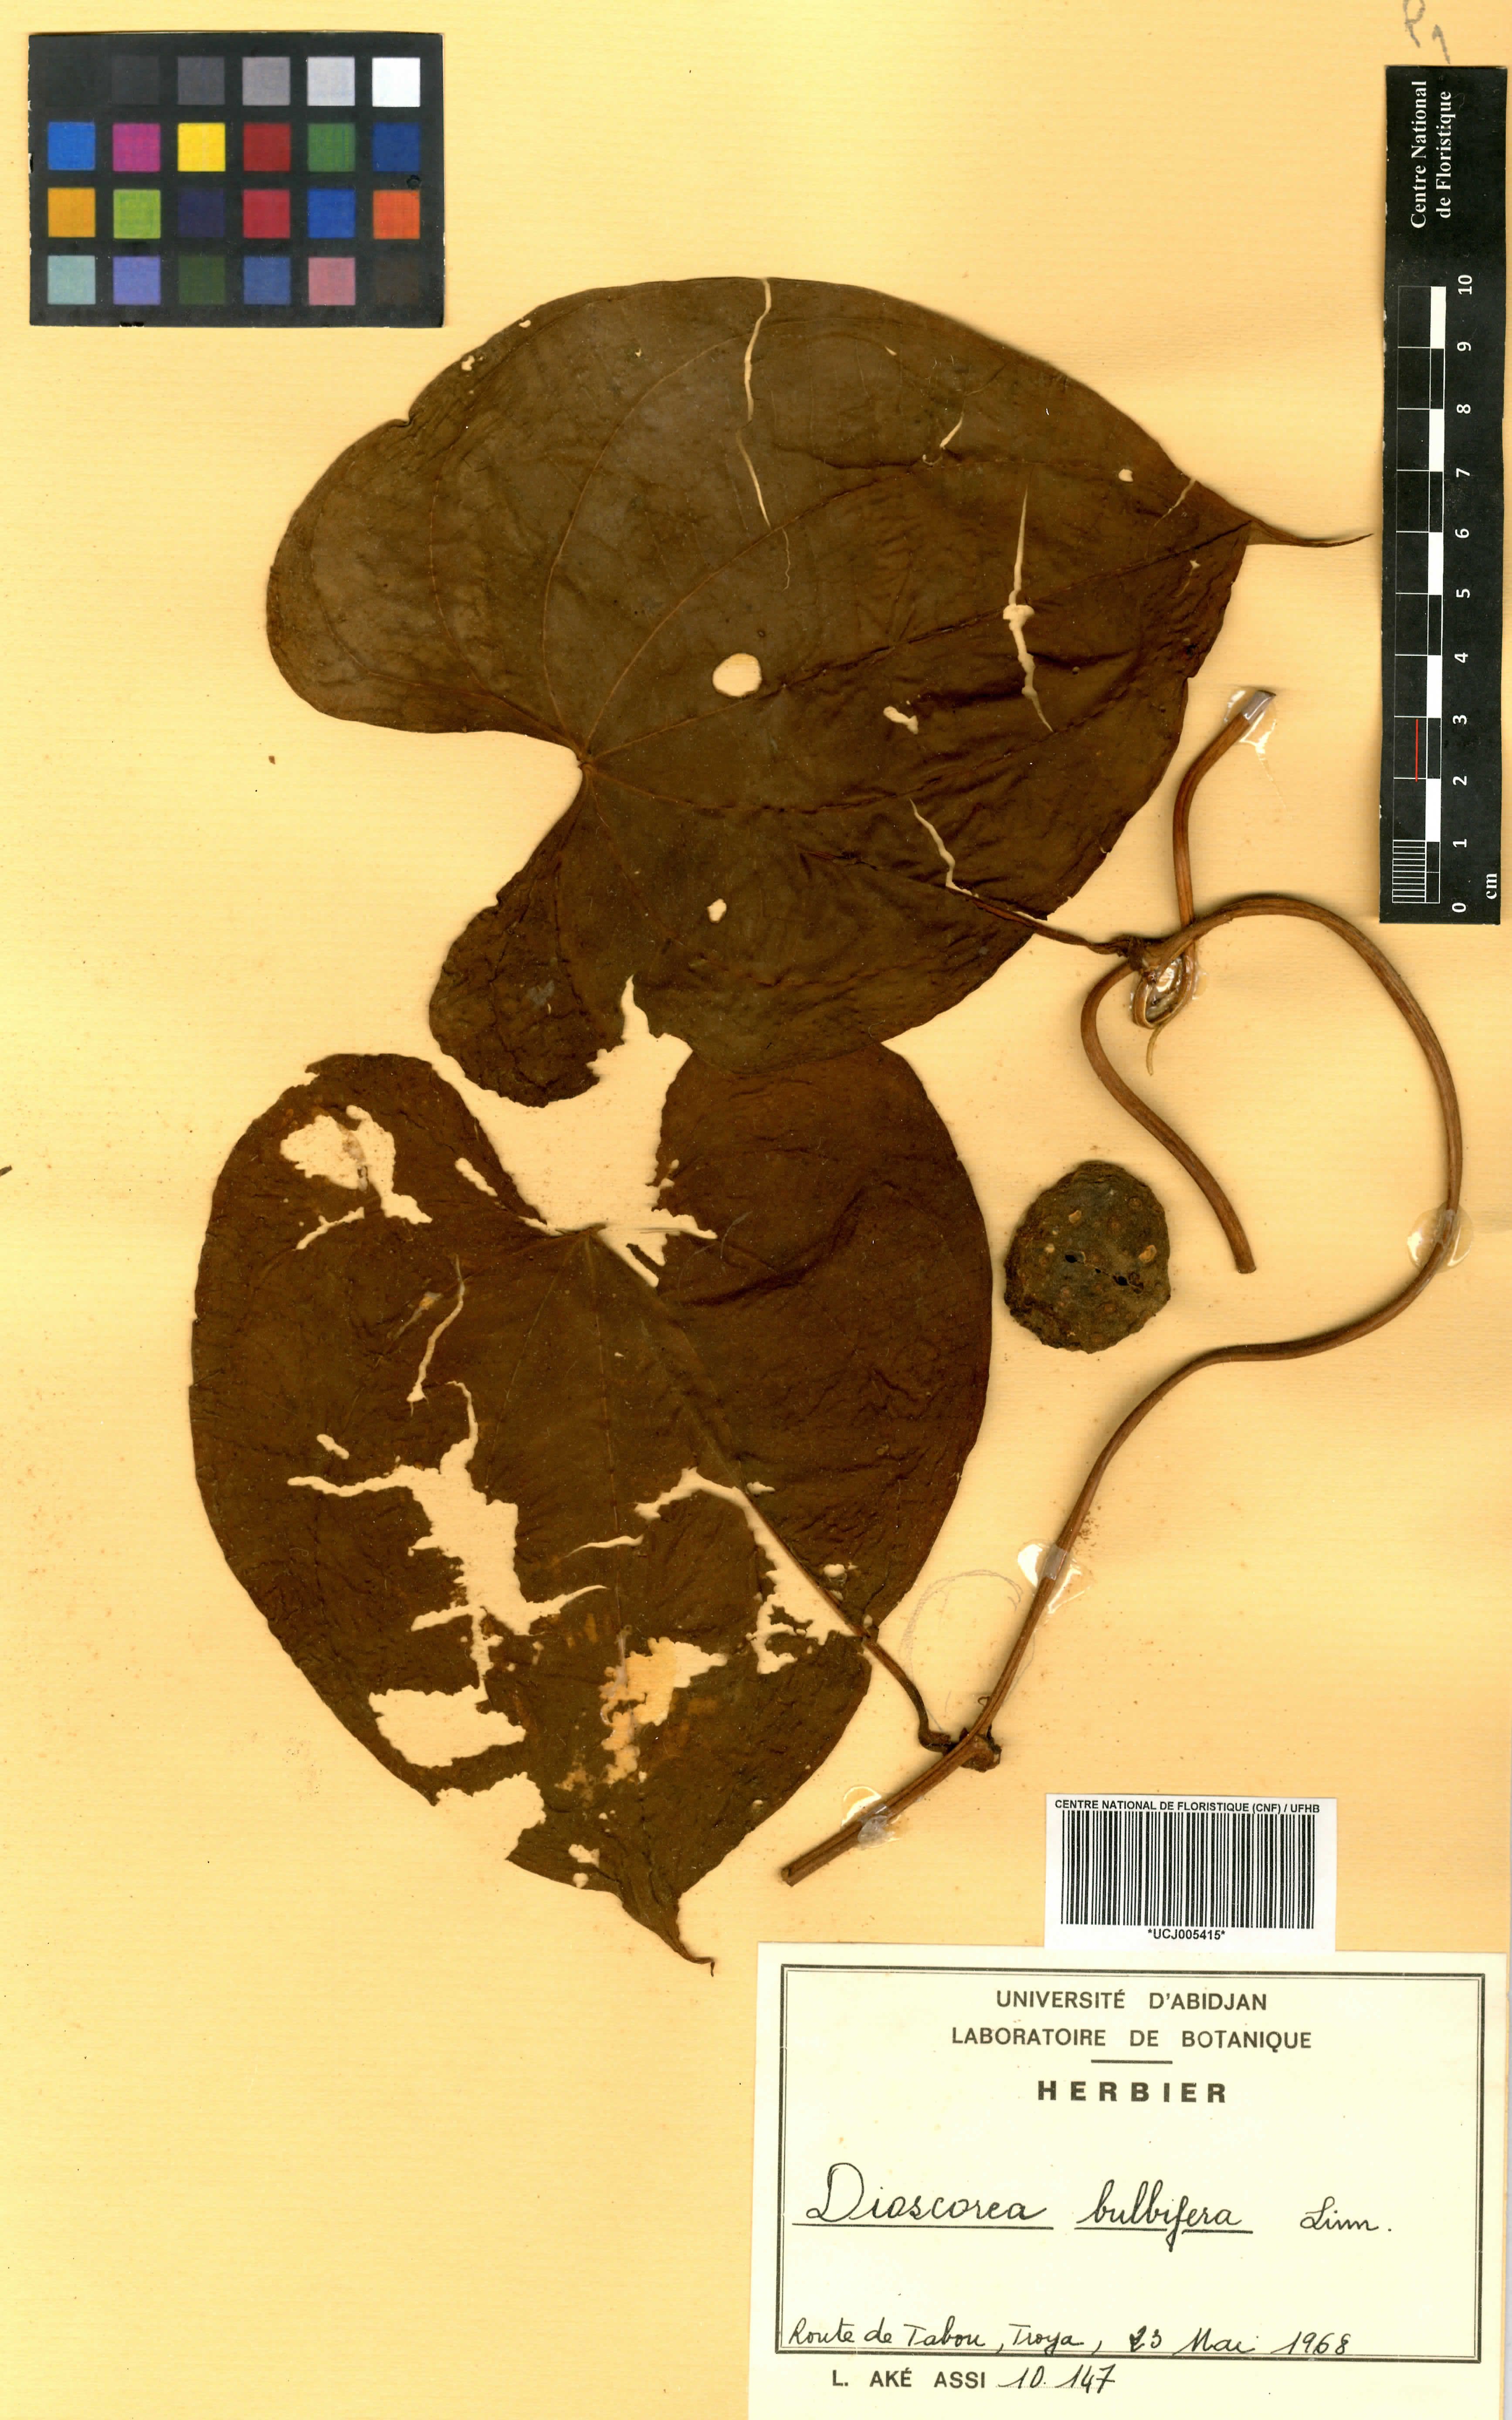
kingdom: Plantae
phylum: Tracheophyta
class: Liliopsida
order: Dioscoreales
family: Dioscoreaceae
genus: Dioscorea
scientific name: Dioscorea bulbifera
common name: Air yam
